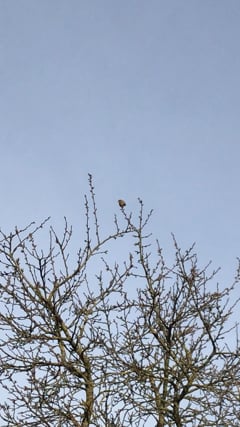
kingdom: Animalia
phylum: Chordata
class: Aves
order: Passeriformes
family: Troglodytidae
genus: Troglodytes
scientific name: Troglodytes troglodytes
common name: Eurasian wren
